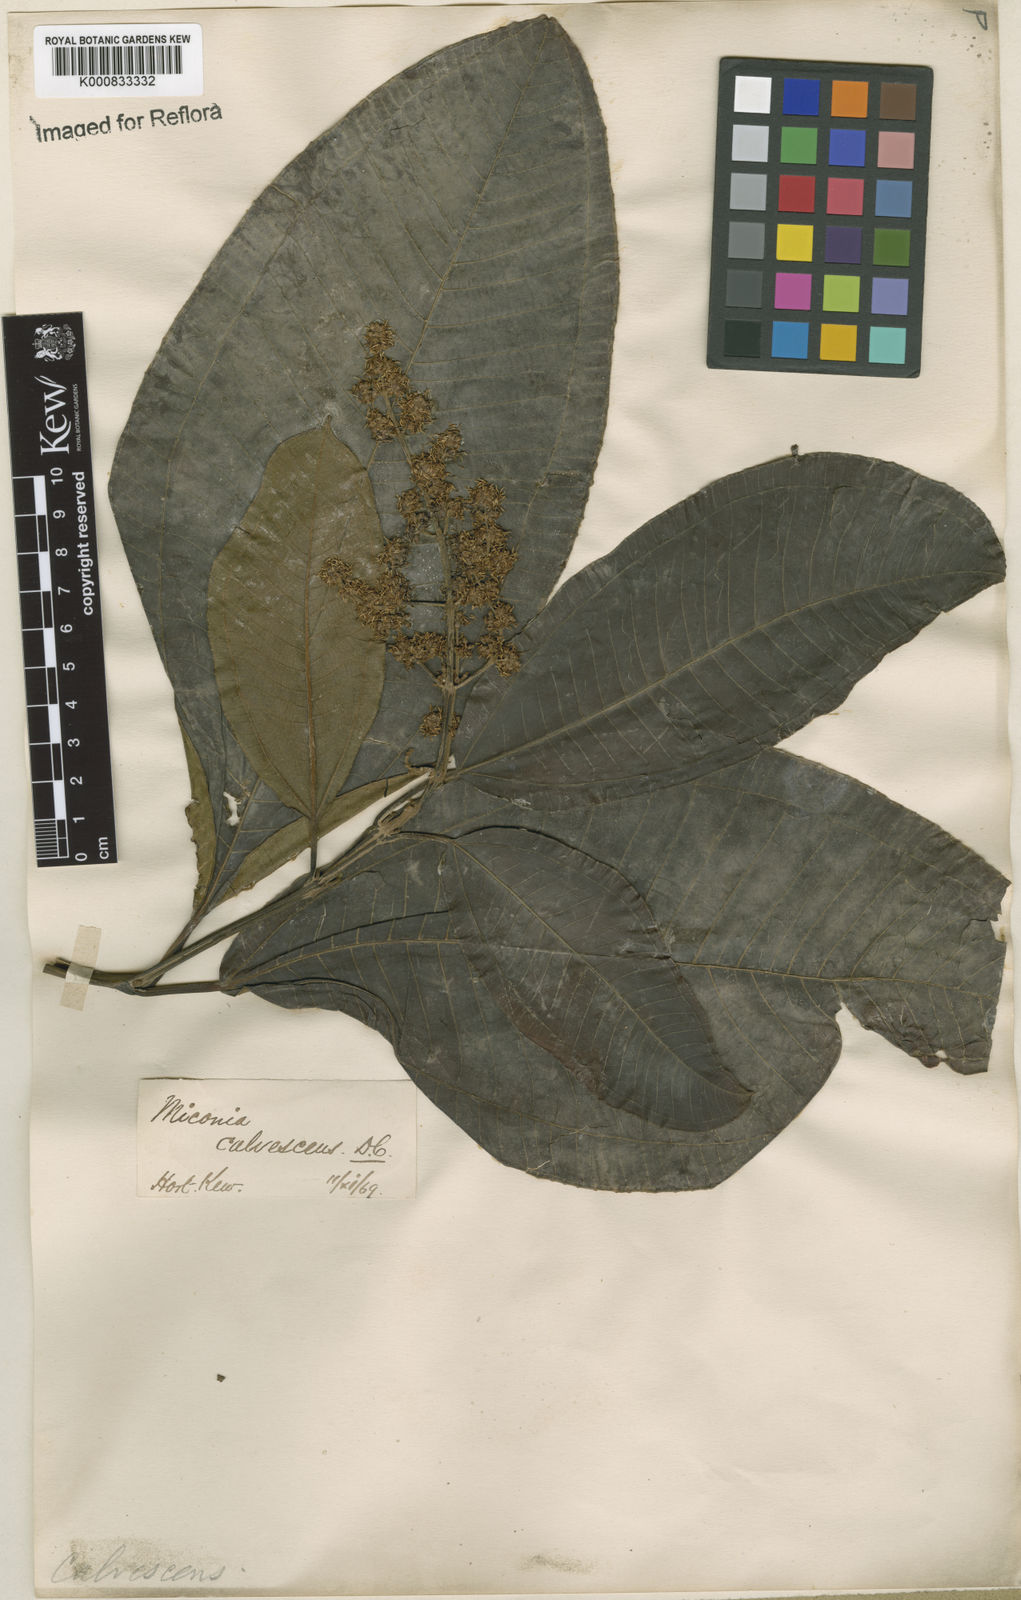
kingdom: Plantae
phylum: Tracheophyta
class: Magnoliopsida
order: Myrtales
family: Melastomataceae
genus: Miconia
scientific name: Miconia calvescens
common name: Purple plague
